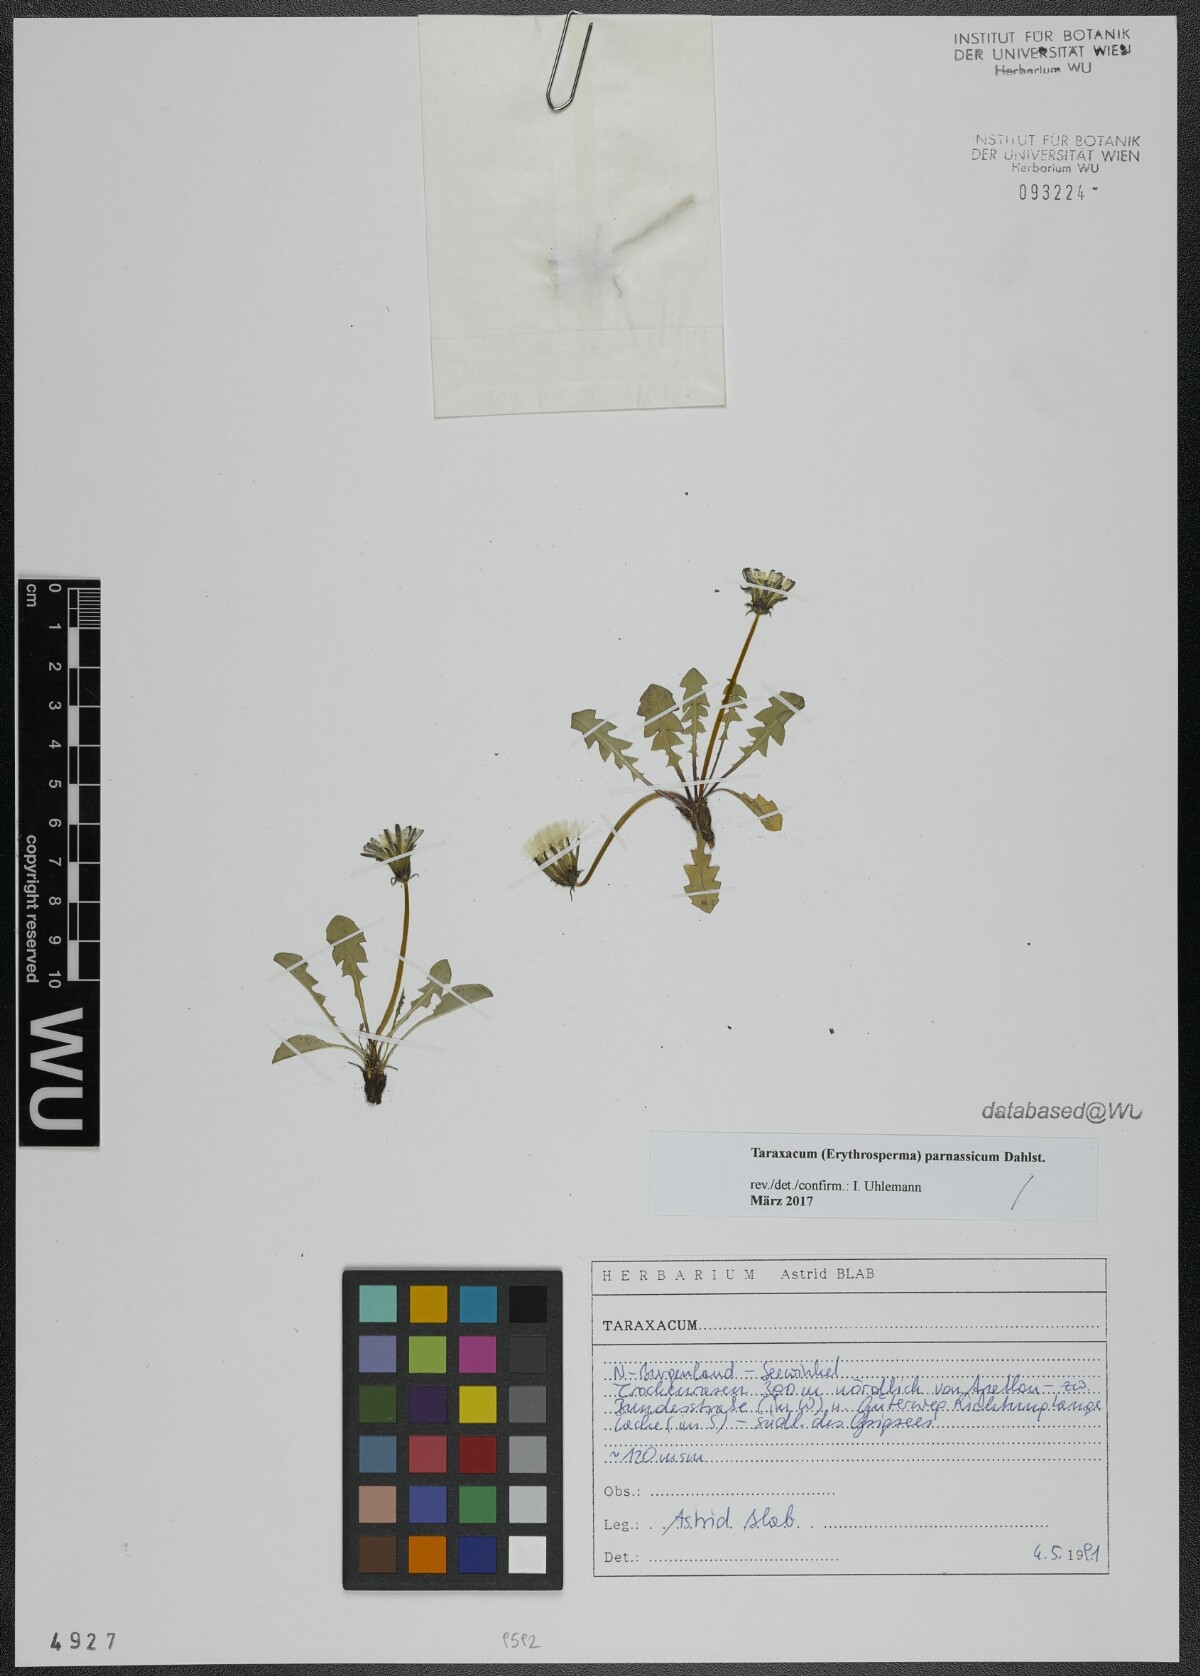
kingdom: Plantae
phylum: Tracheophyta
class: Magnoliopsida
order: Asterales
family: Asteraceae
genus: Taraxacum
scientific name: Taraxacum parnassicum
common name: Parnassus dandelion
